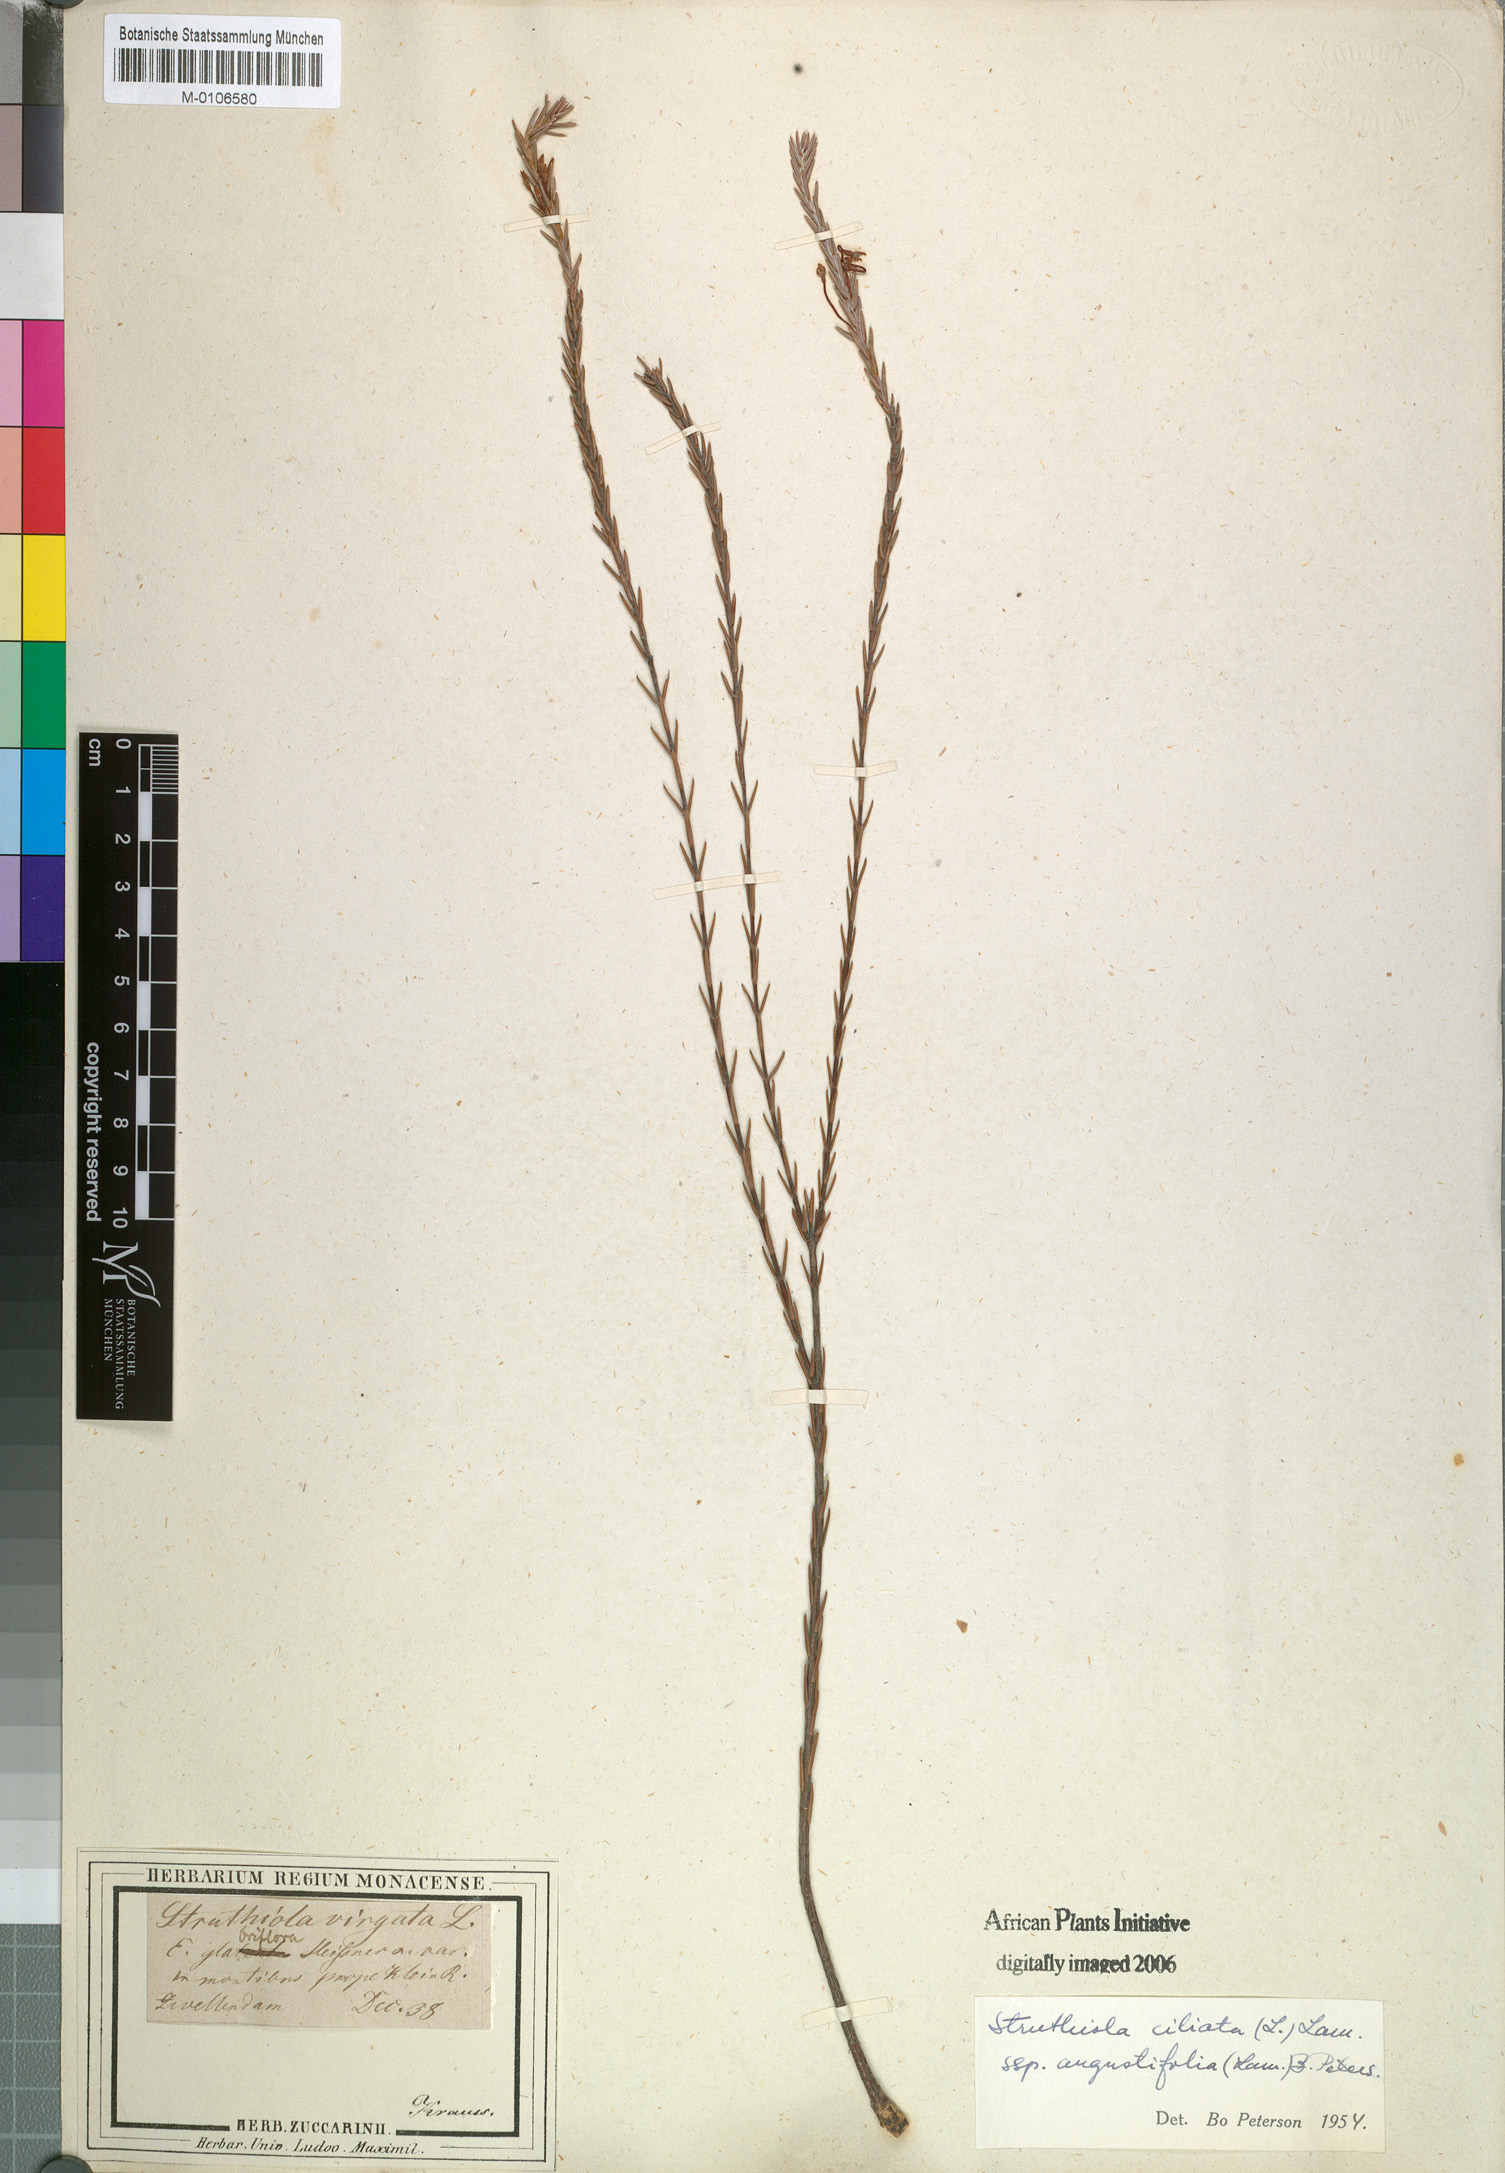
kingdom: Plantae
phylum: Tracheophyta
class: Magnoliopsida
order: Malvales
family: Thymelaeaceae
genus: Struthiola
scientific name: Struthiola ciliata
